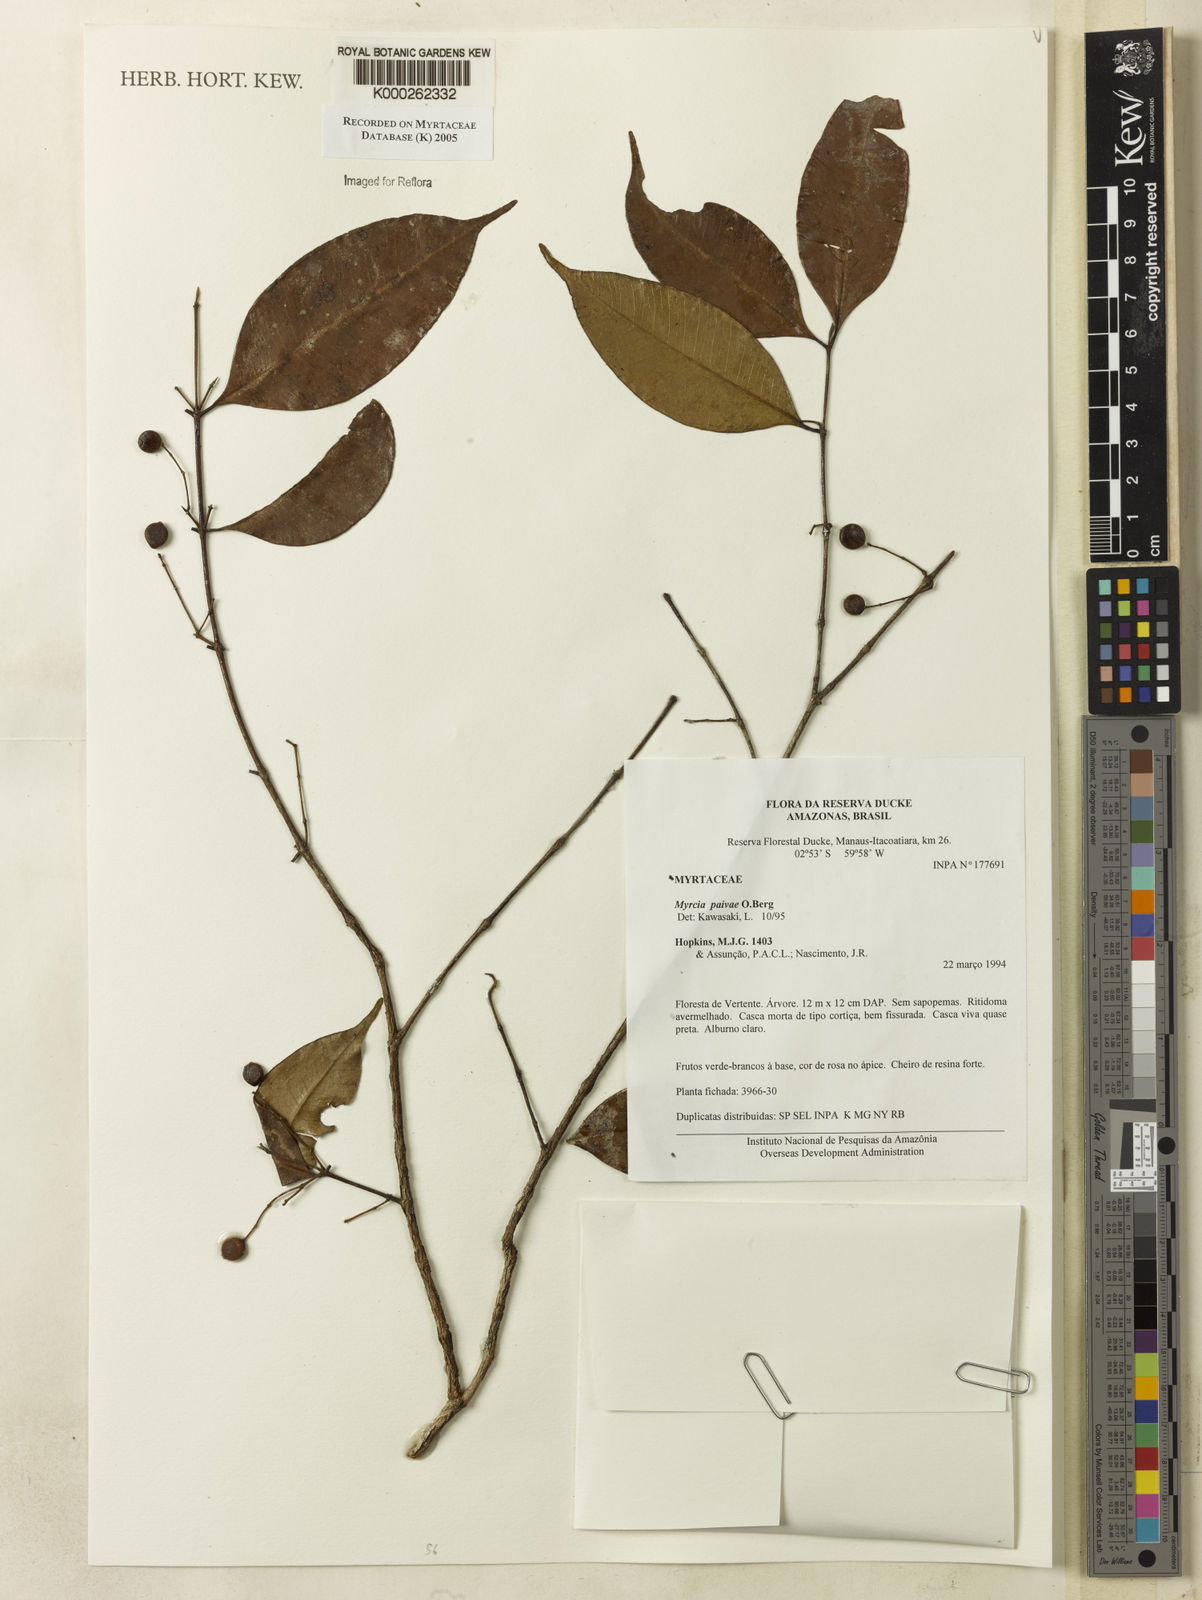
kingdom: Plantae
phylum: Tracheophyta
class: Magnoliopsida
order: Myrtales
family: Myrtaceae
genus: Myrcia
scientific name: Myrcia paivae
